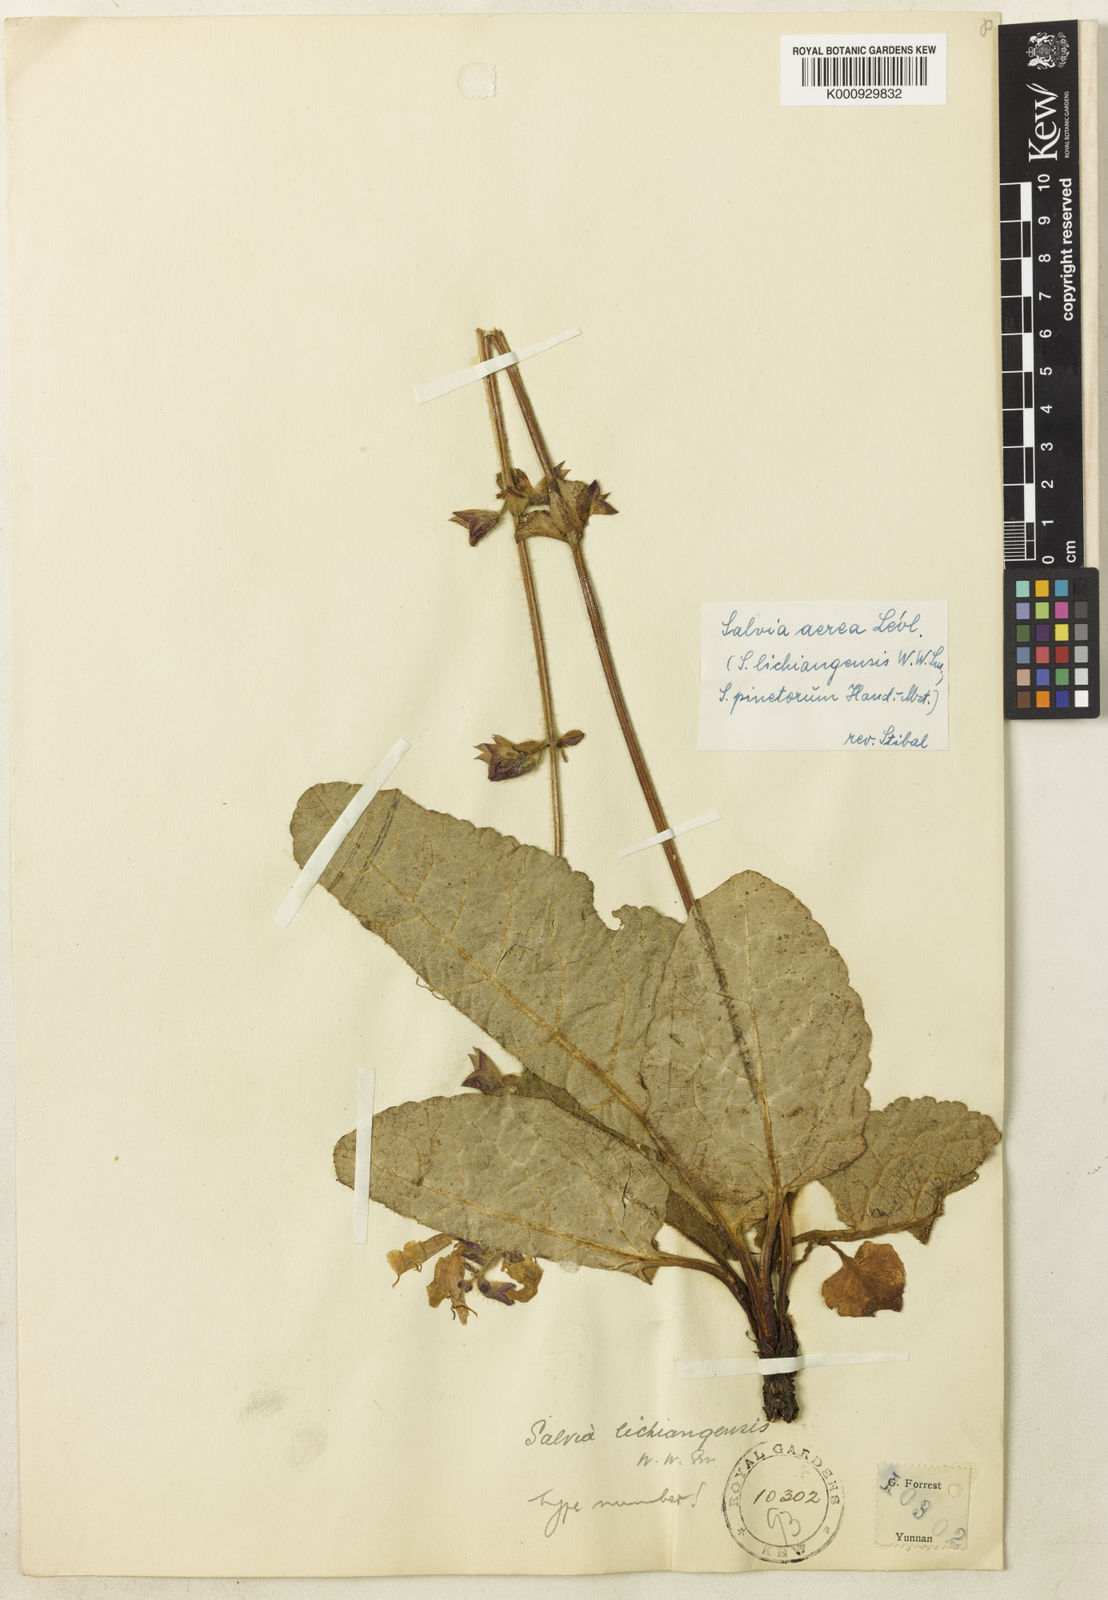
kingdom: Plantae
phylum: Tracheophyta
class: Magnoliopsida
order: Lamiales
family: Lamiaceae
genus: Salvia
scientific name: Salvia
